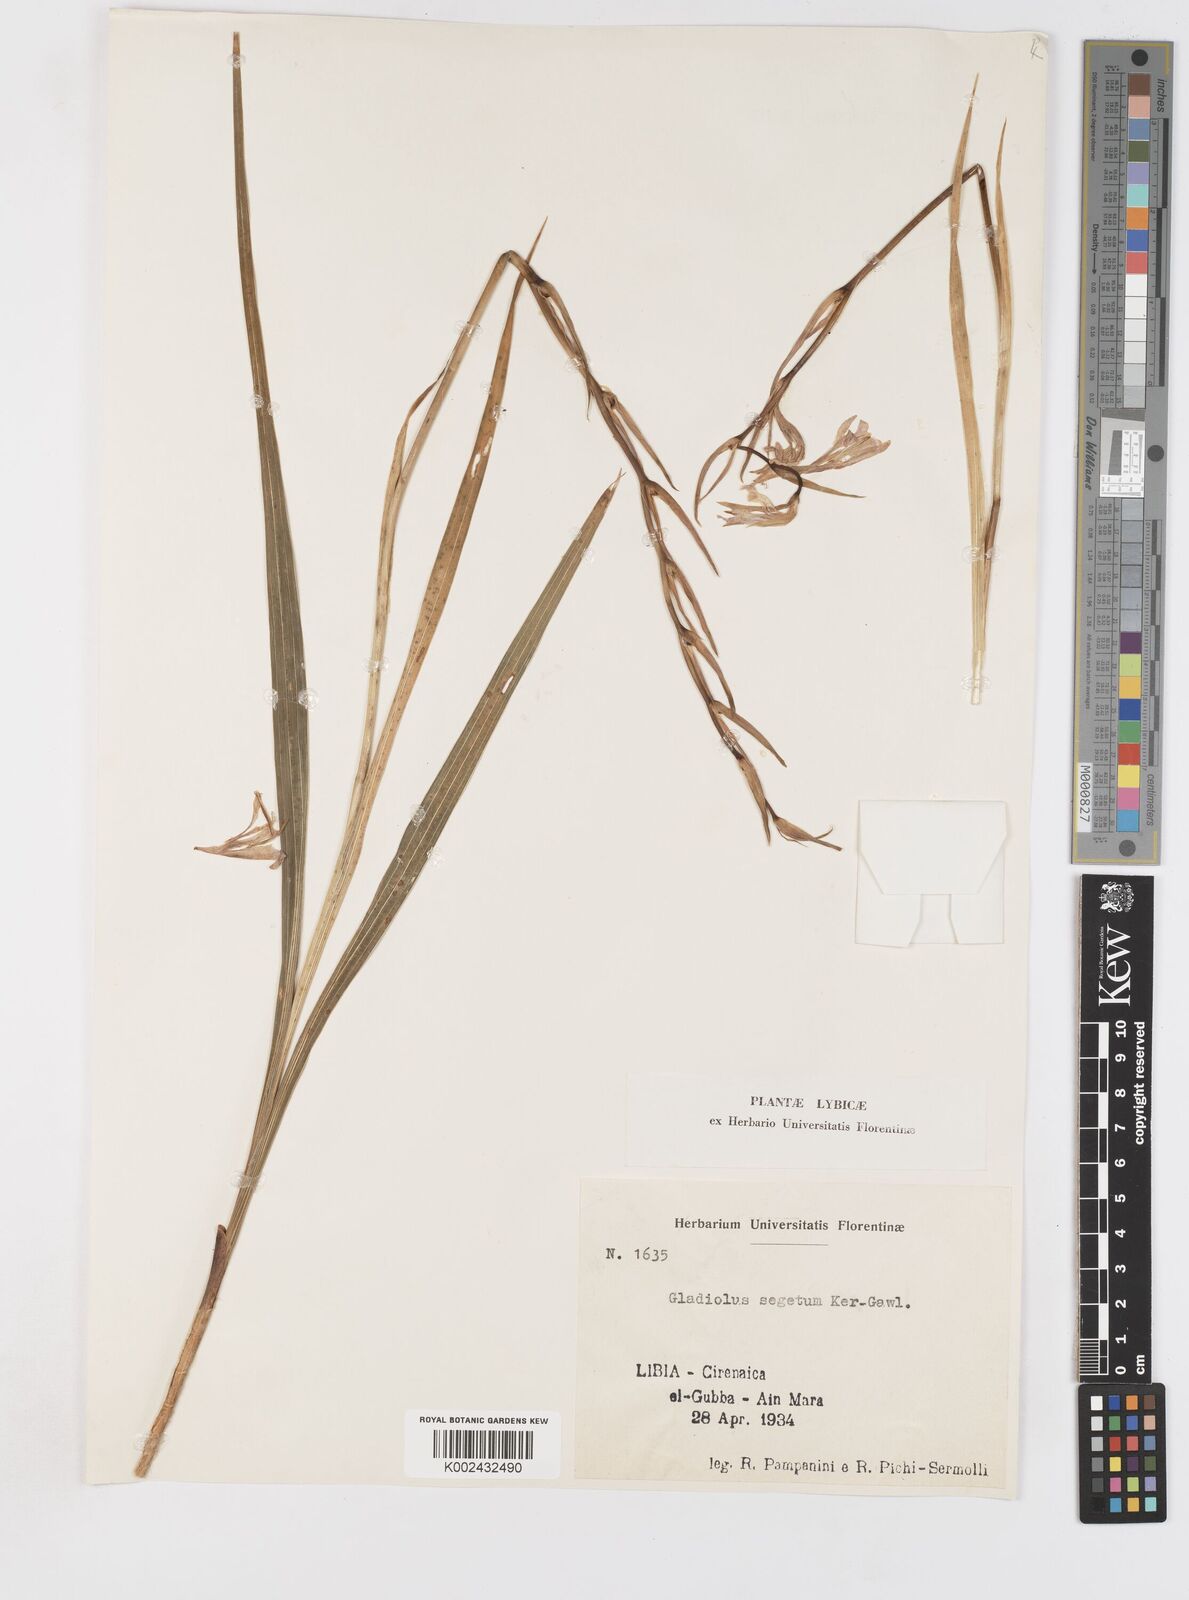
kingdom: Plantae
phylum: Tracheophyta
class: Liliopsida
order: Asparagales
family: Iridaceae
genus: Gladiolus
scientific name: Gladiolus italicus
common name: Field gladiolus
